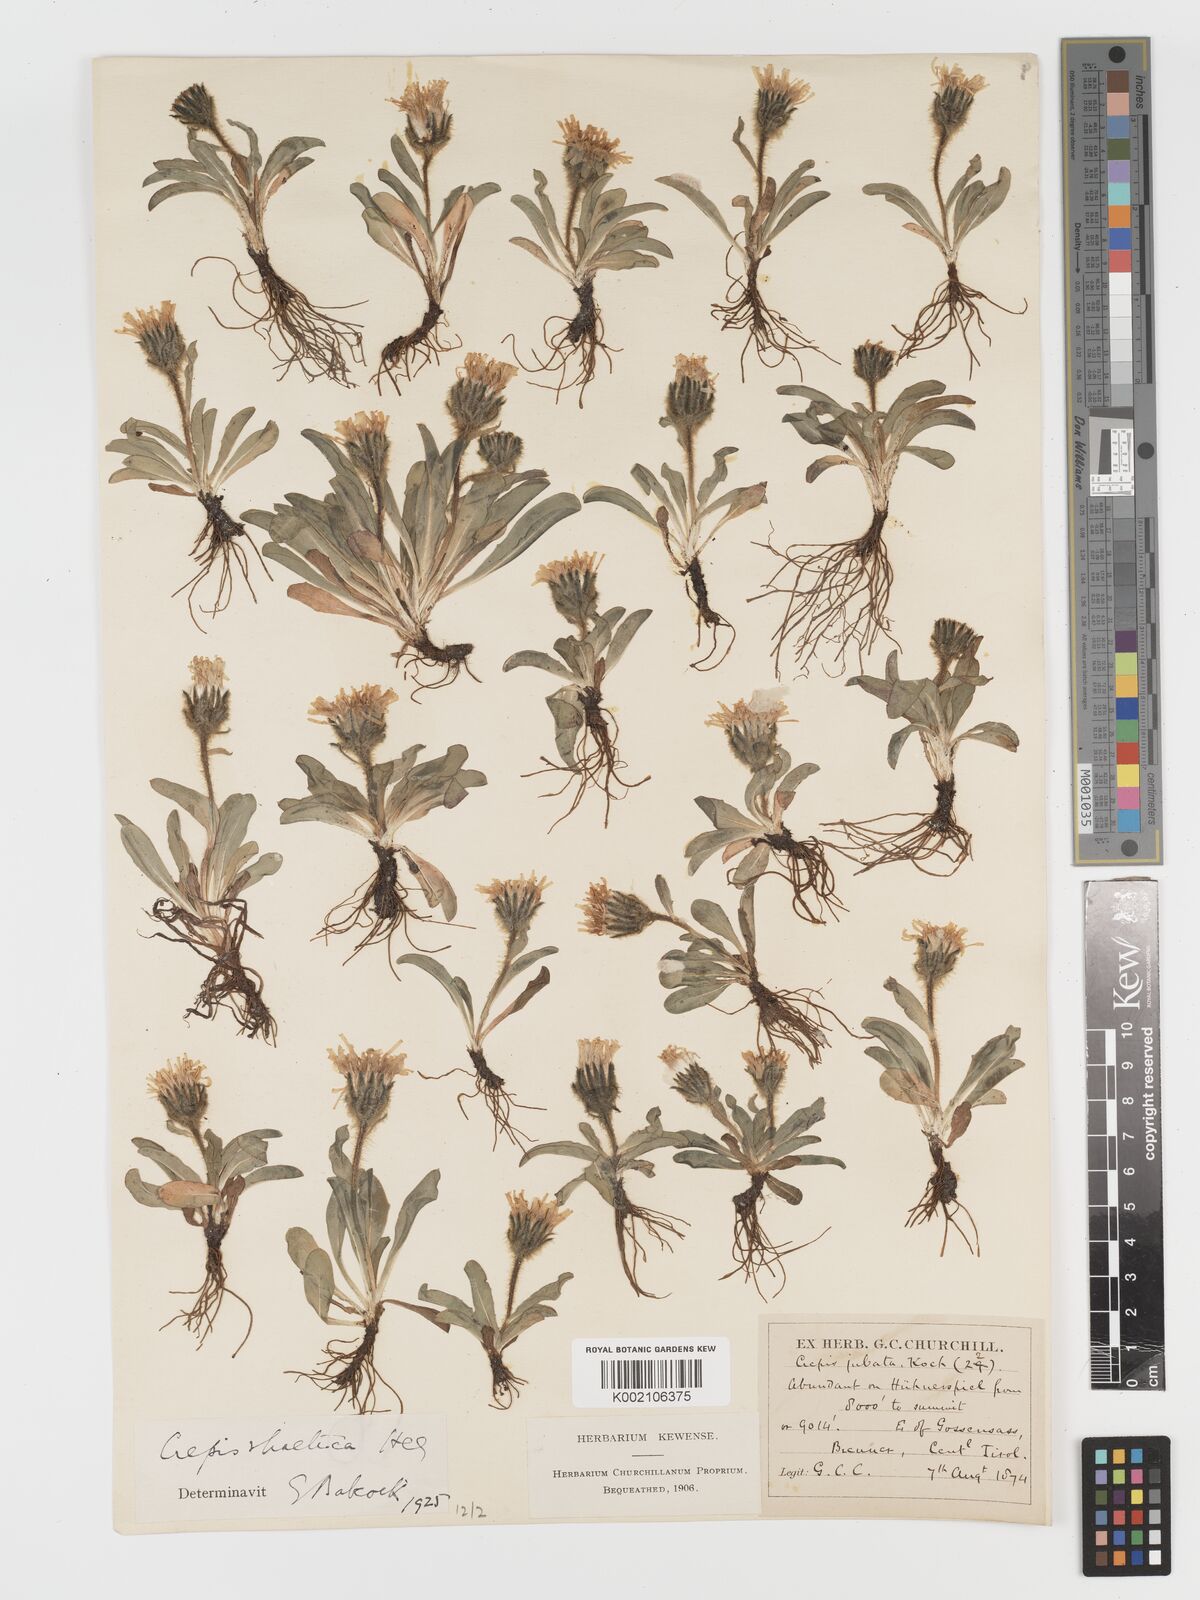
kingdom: Plantae
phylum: Tracheophyta
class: Magnoliopsida
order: Asterales
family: Asteraceae
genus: Crepis
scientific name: Crepis
